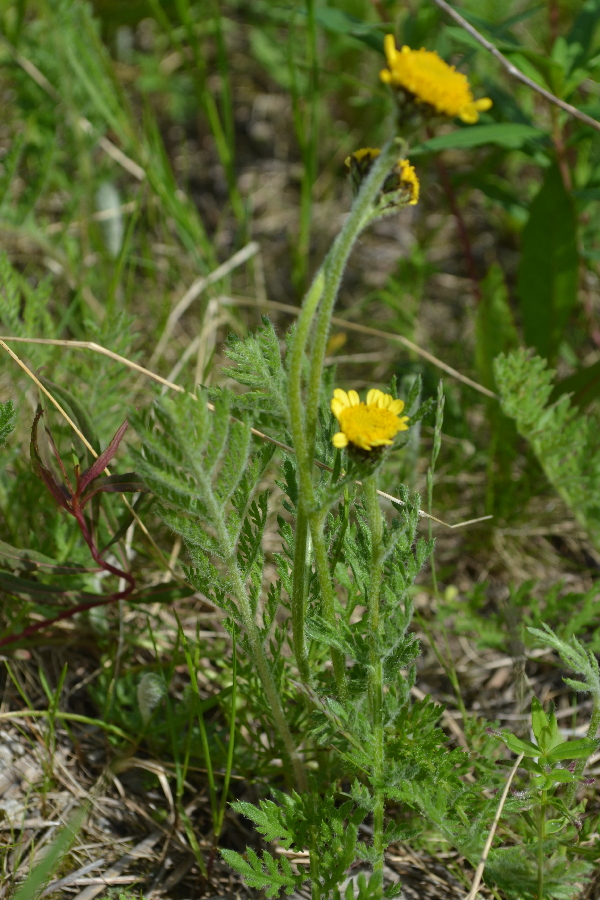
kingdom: Plantae
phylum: Tracheophyta
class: Magnoliopsida
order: Asterales
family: Asteraceae
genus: Tanacetum
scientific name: Tanacetum bipinnatum
